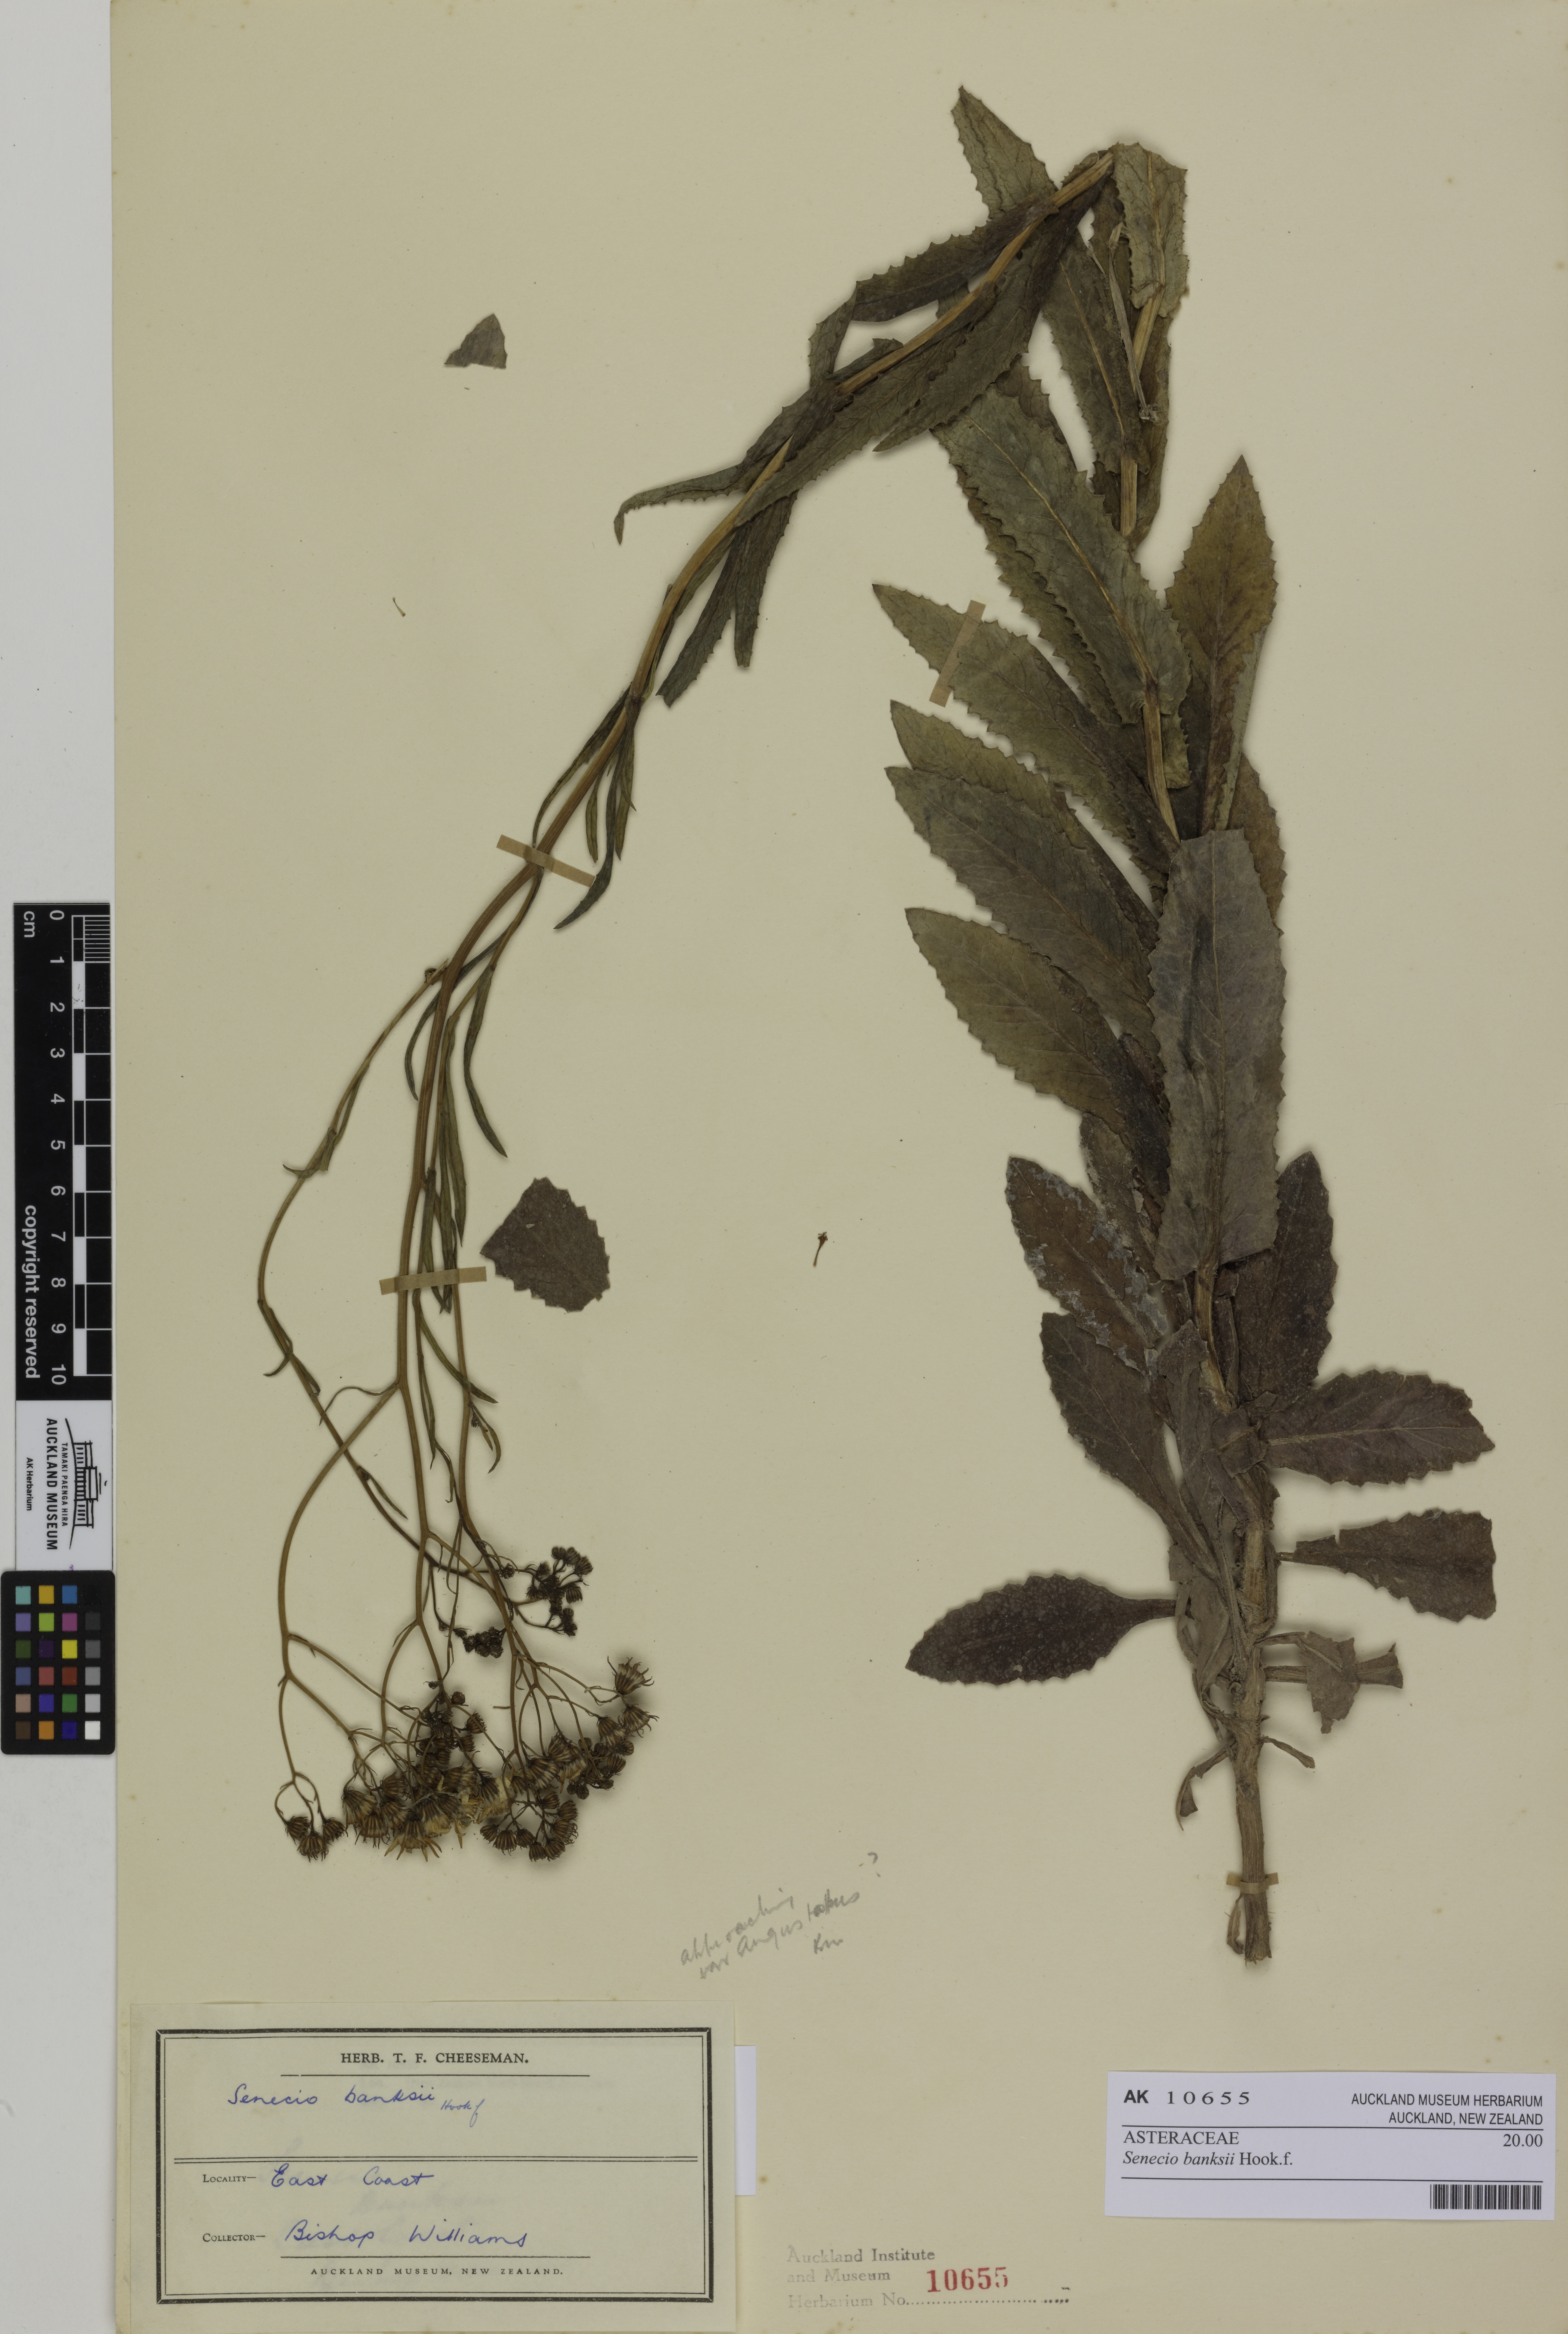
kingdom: Plantae
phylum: Tracheophyta
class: Magnoliopsida
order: Asterales
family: Asteraceae
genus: Senecio
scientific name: Senecio banksii
